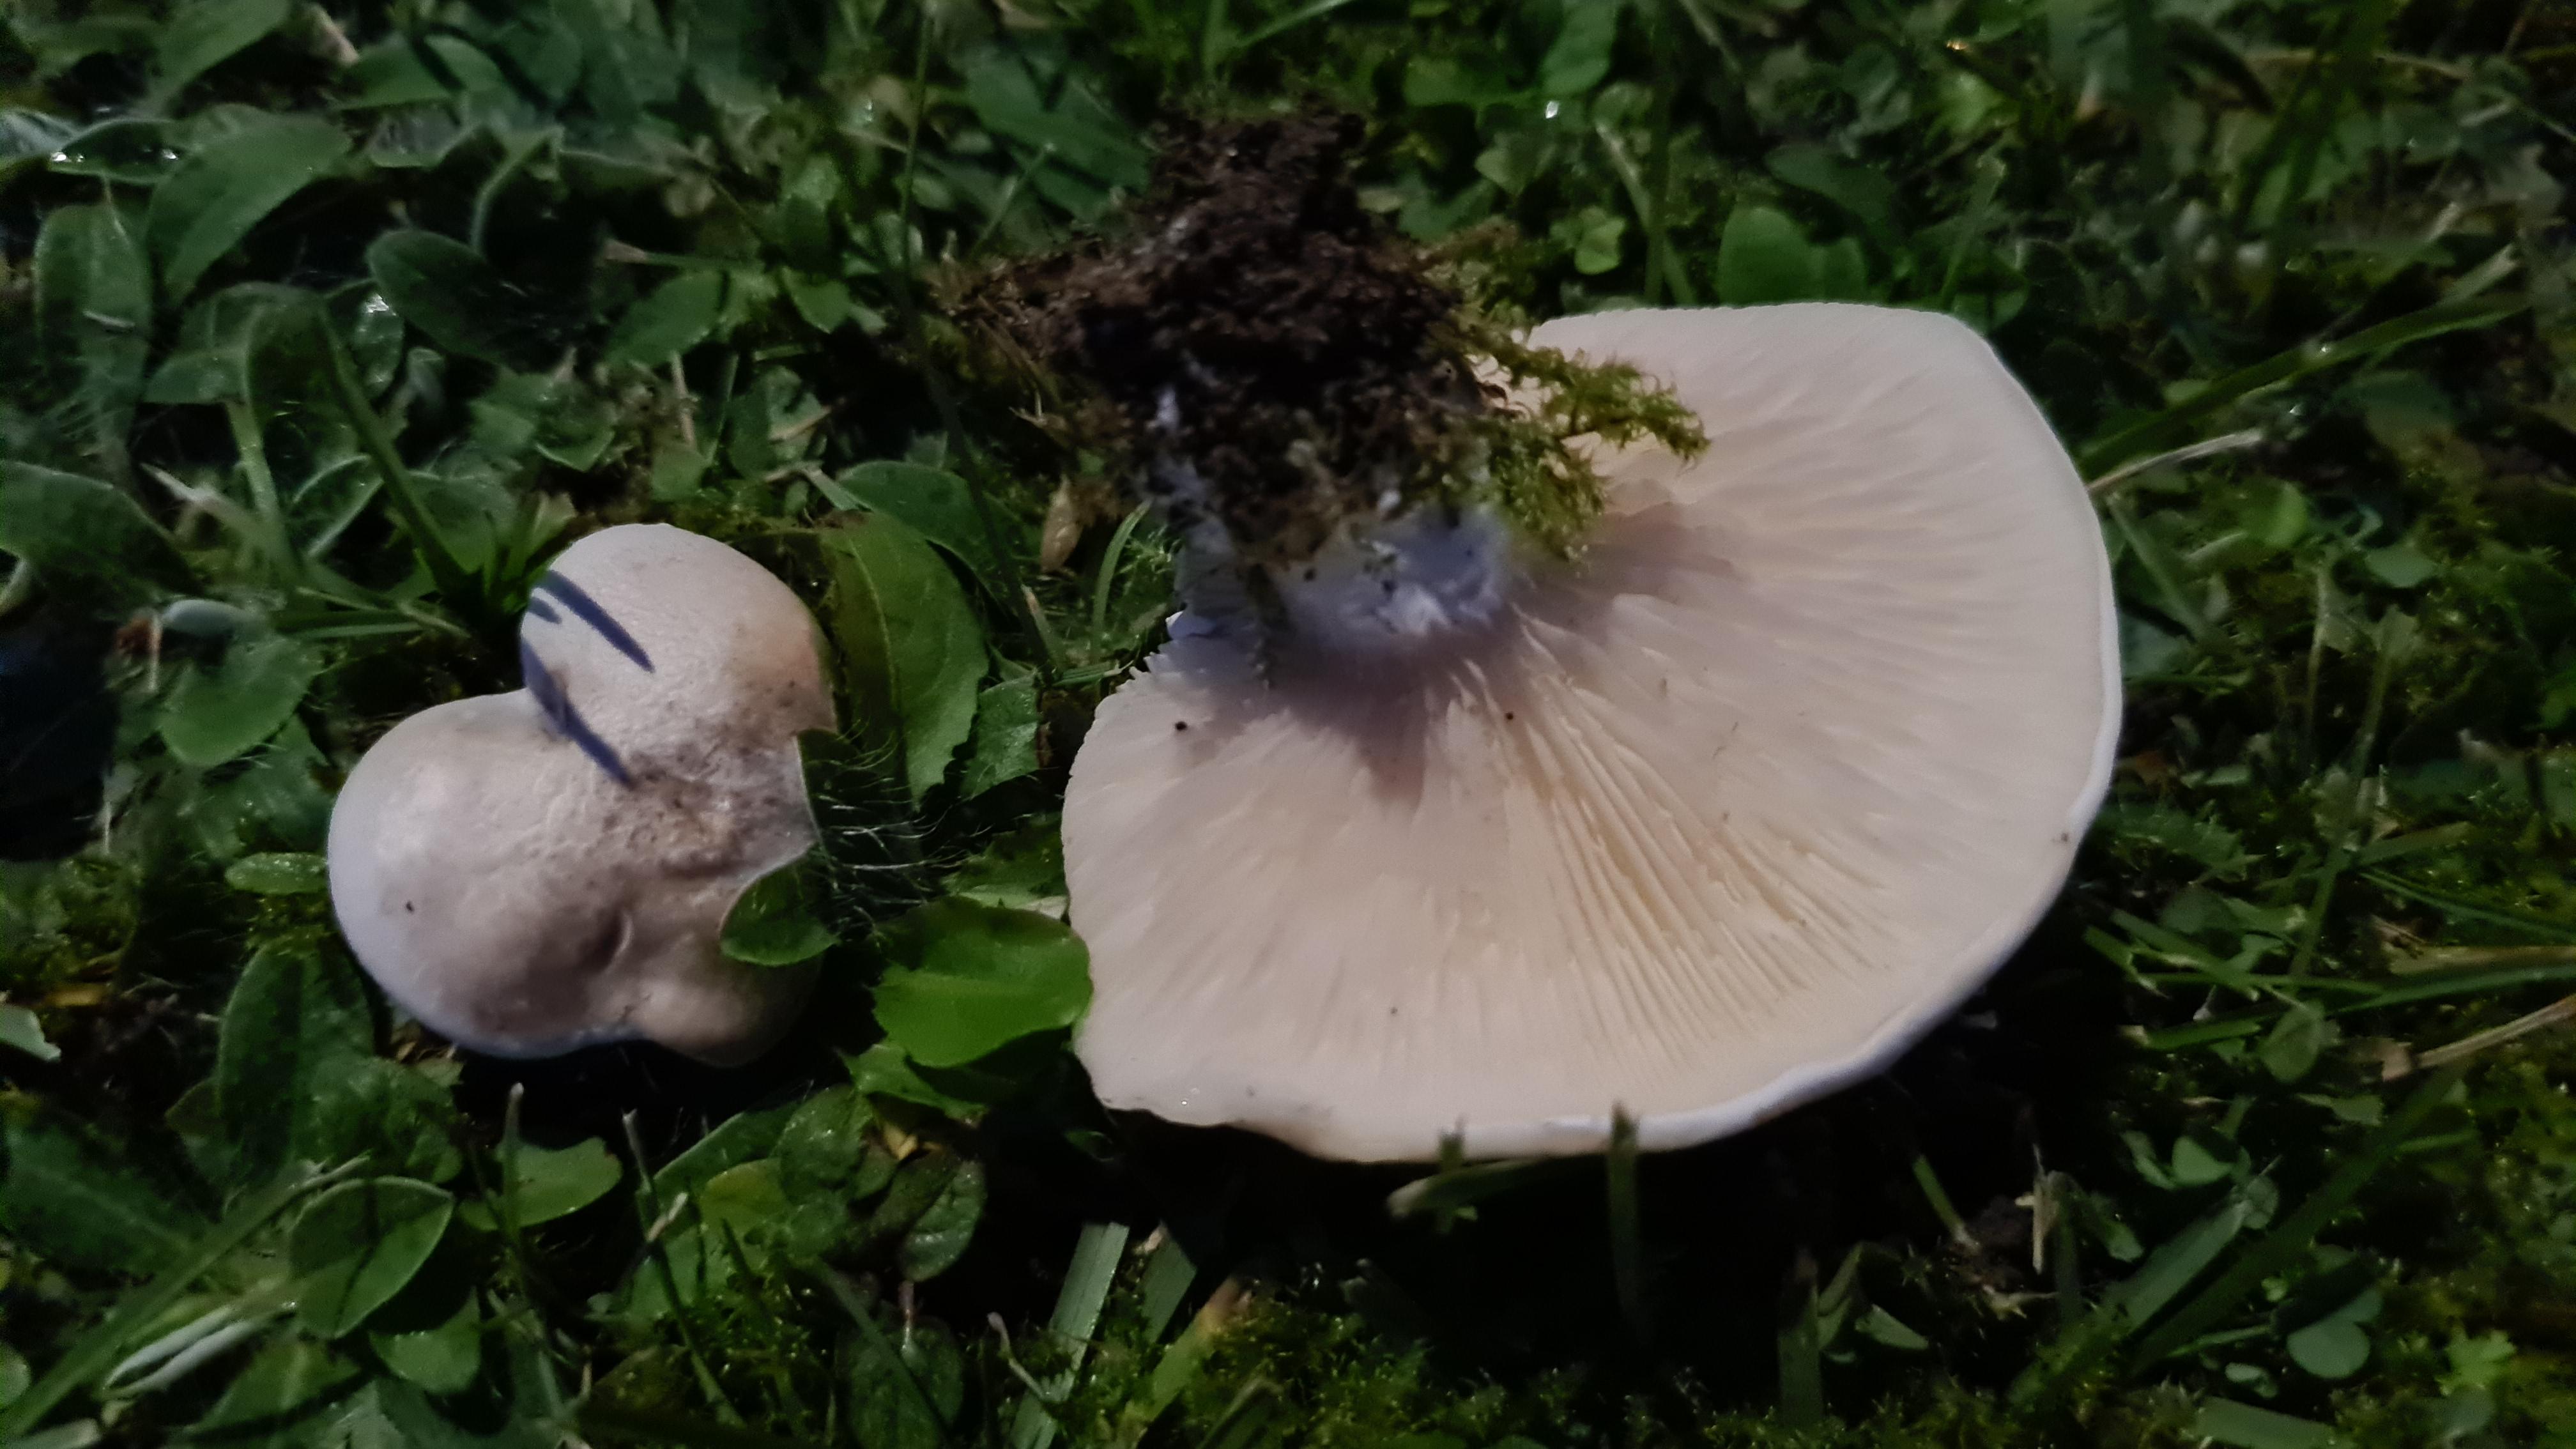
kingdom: Fungi
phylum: Basidiomycota
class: Agaricomycetes
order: Agaricales
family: Entolomataceae
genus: Clitopilus
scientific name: Clitopilus prunulus
